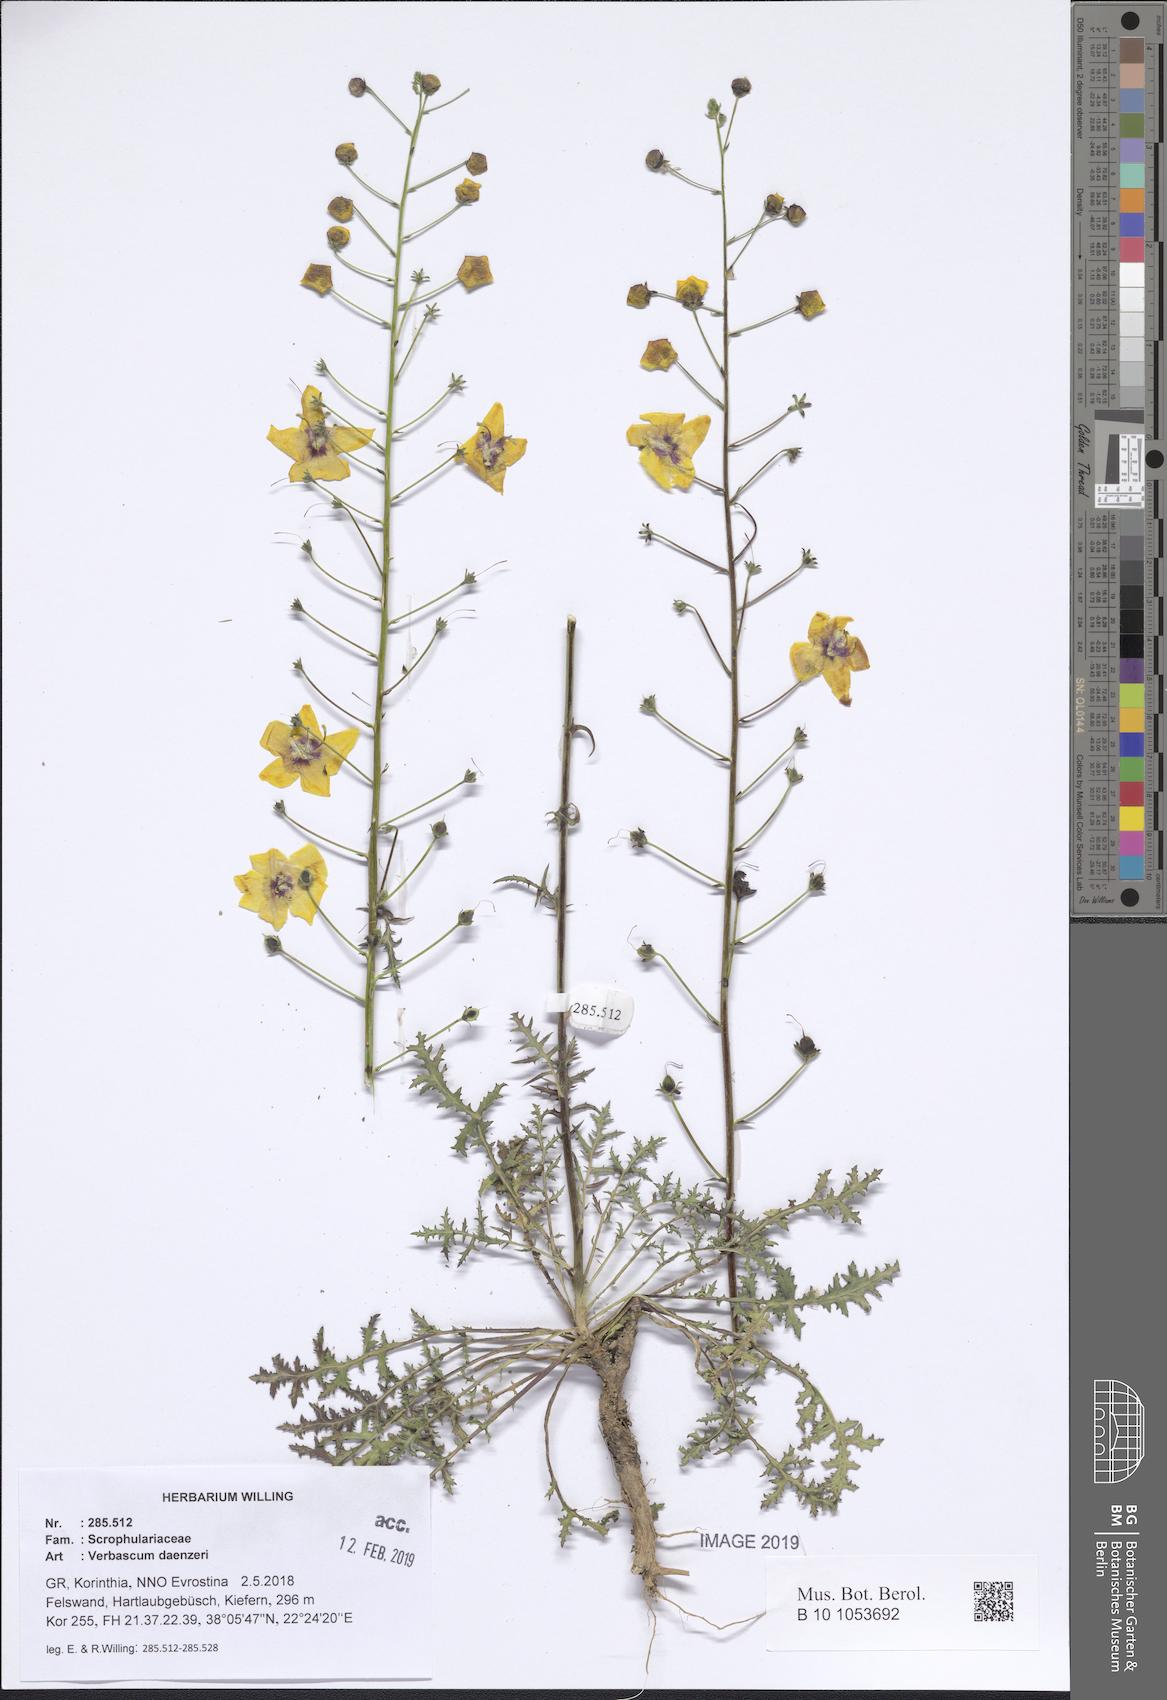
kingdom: Plantae
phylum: Tracheophyta
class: Magnoliopsida
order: Lamiales
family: Scrophulariaceae
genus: Verbascum
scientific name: Verbascum daenzeri
